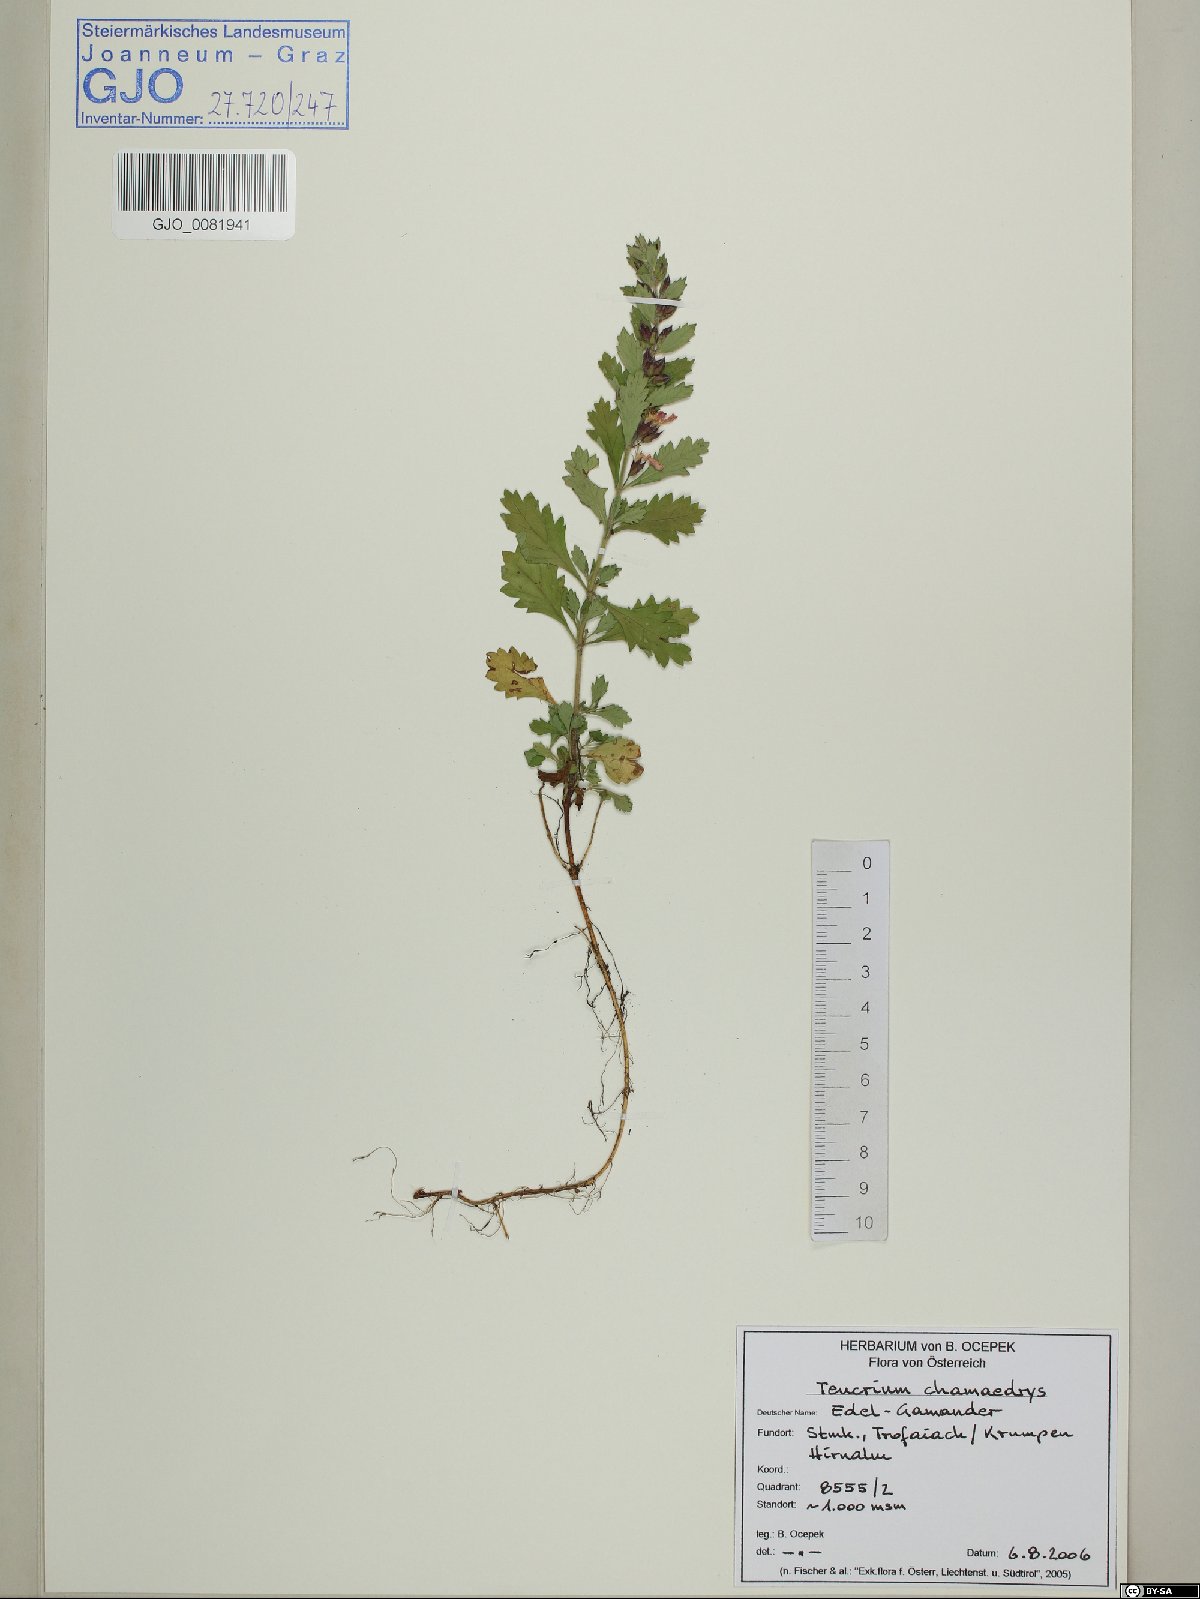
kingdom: Plantae
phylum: Tracheophyta
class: Magnoliopsida
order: Lamiales
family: Lamiaceae
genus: Teucrium
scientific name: Teucrium chamaedrys
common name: Wall germander
